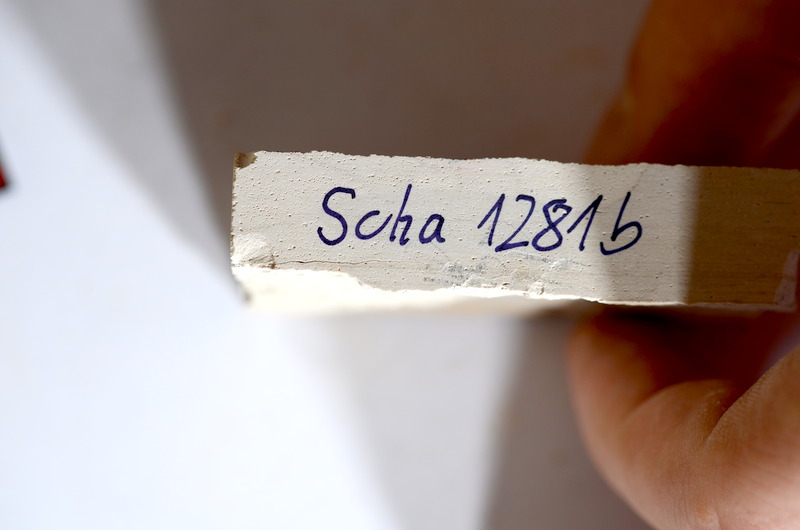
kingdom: Animalia
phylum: Chordata
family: Ascalaboidae
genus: Tharsis
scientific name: Tharsis dubius
